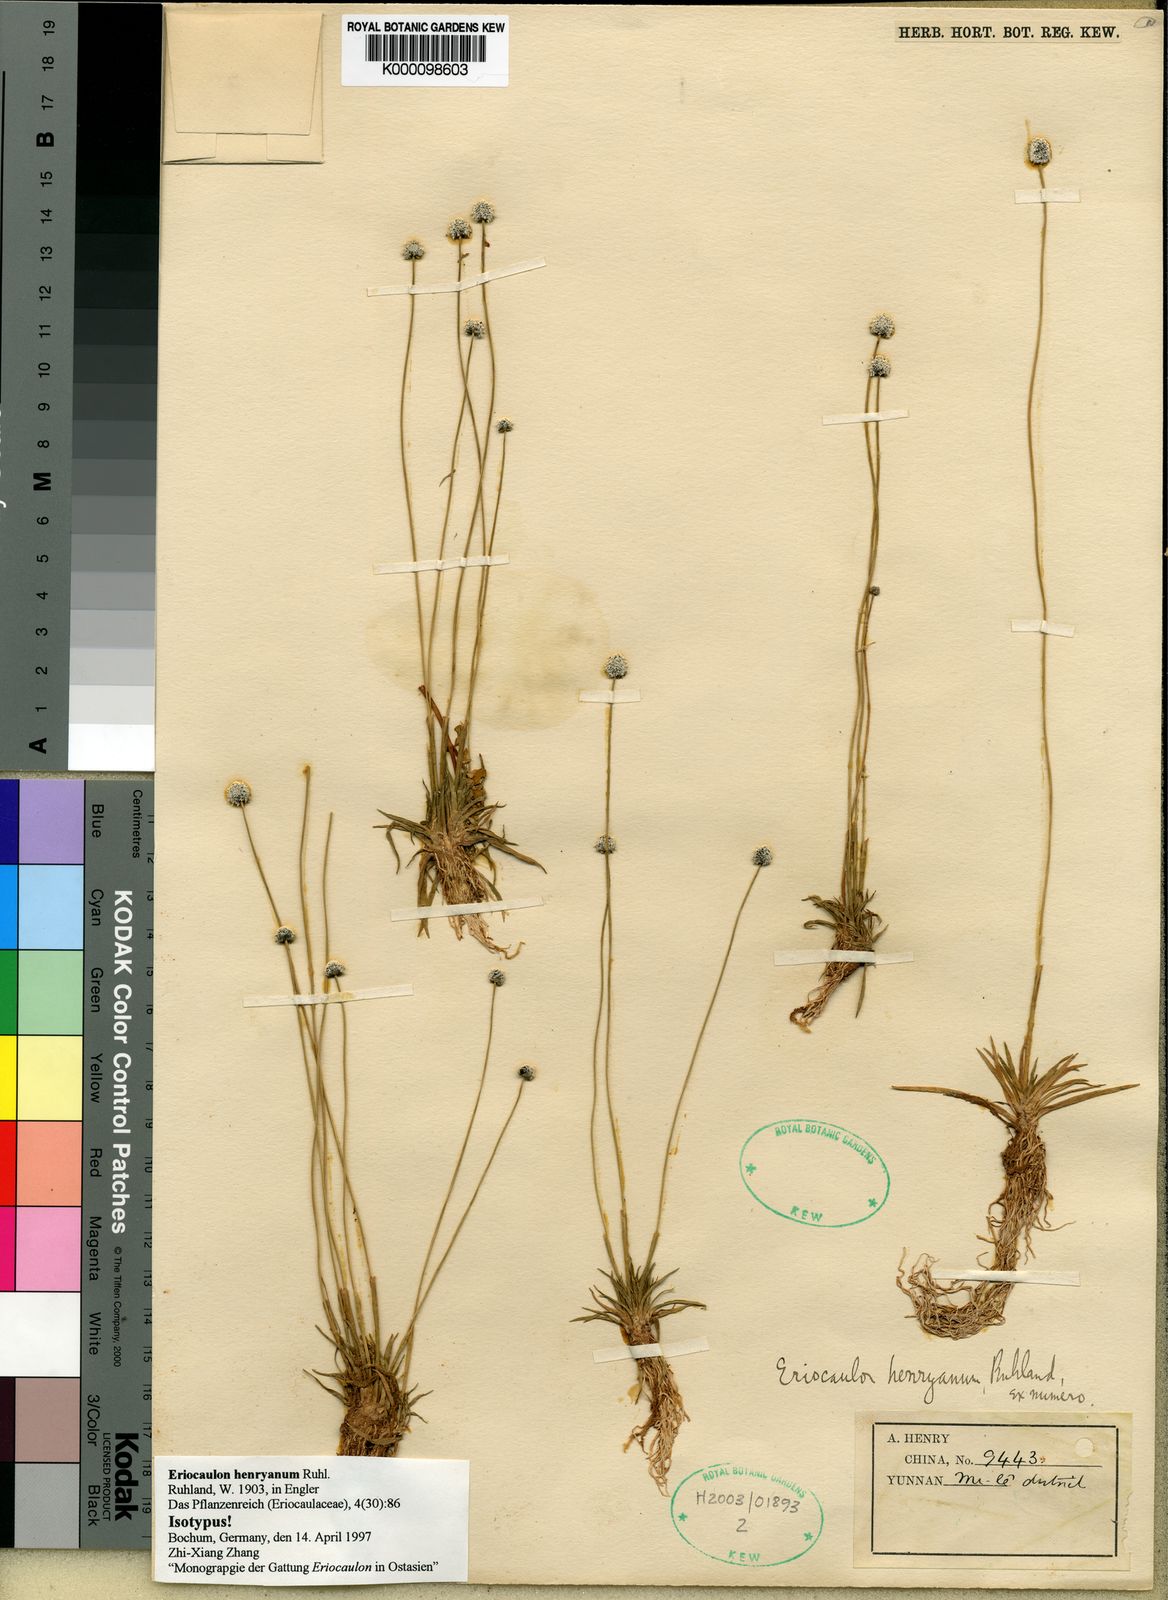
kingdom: Plantae
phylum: Tracheophyta
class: Liliopsida
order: Poales
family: Eriocaulaceae
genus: Eriocaulon
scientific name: Eriocaulon henryanum
